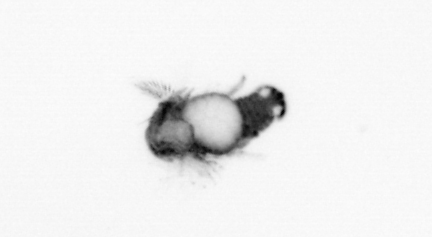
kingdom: Animalia
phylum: Annelida
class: Polychaeta
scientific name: Polychaeta
